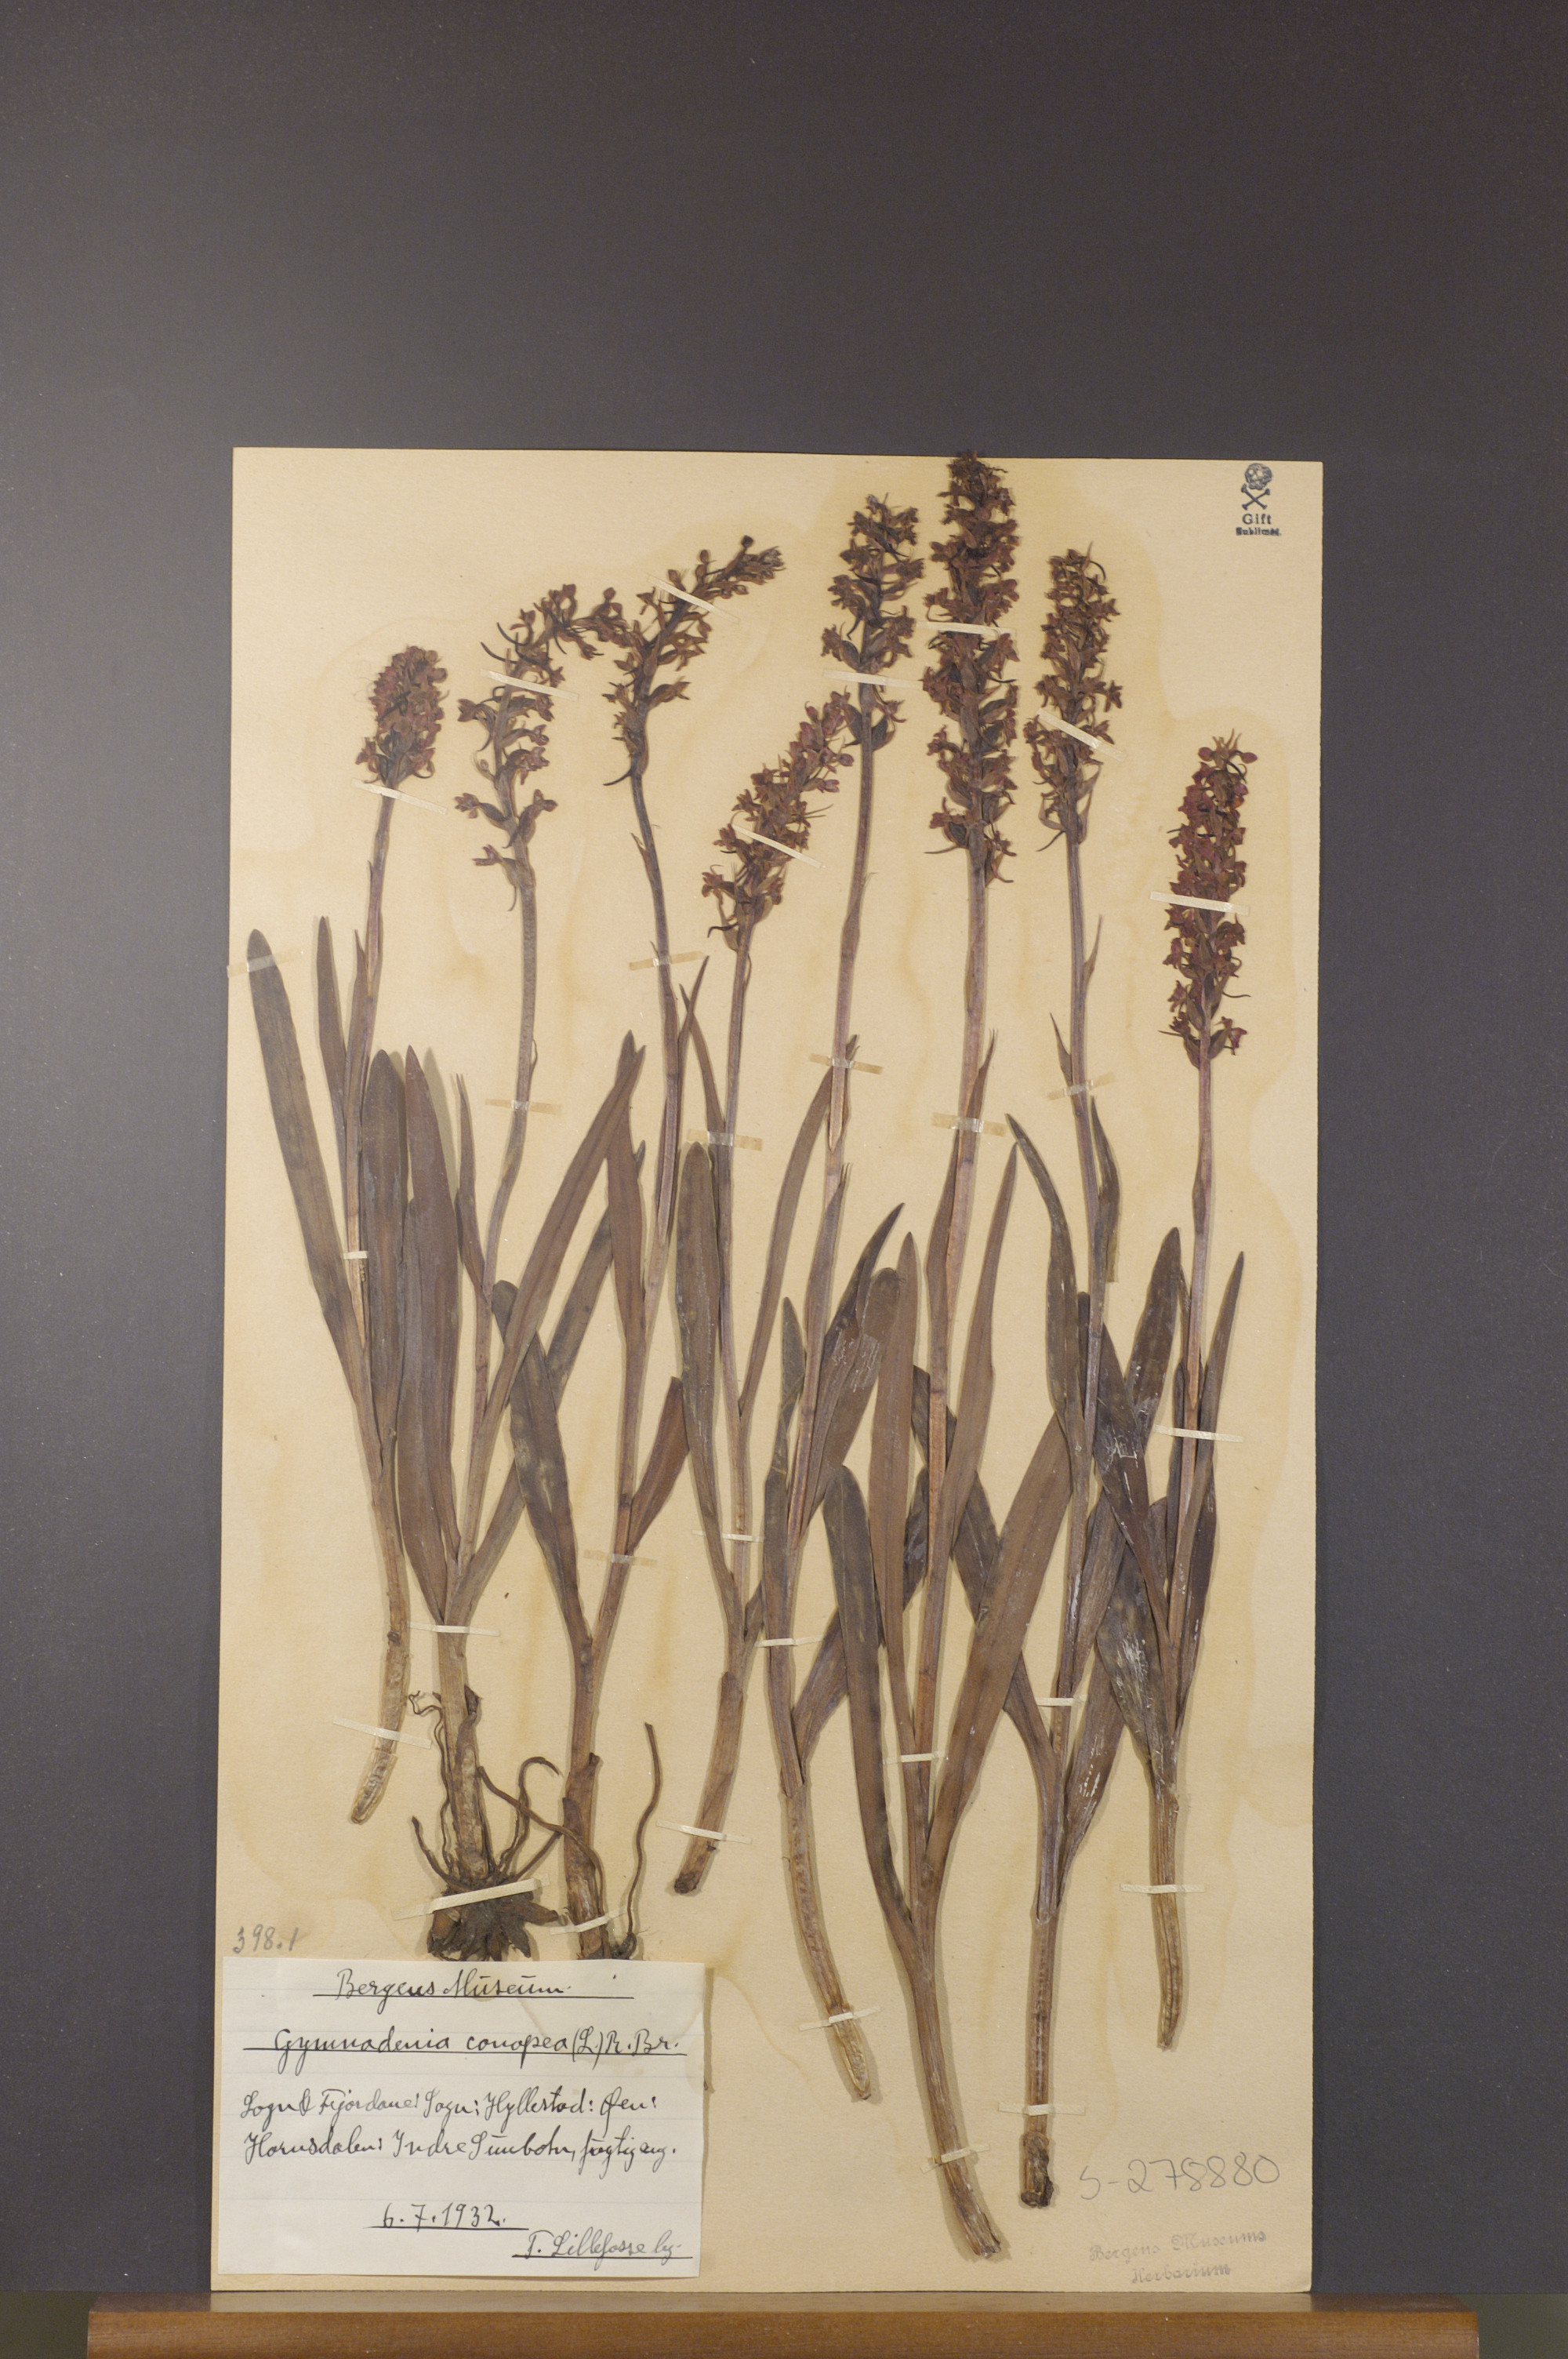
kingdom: Plantae
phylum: Tracheophyta
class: Liliopsida
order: Asparagales
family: Orchidaceae
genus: Gymnadenia
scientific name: Gymnadenia conopsea
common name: Fragrant orchid
